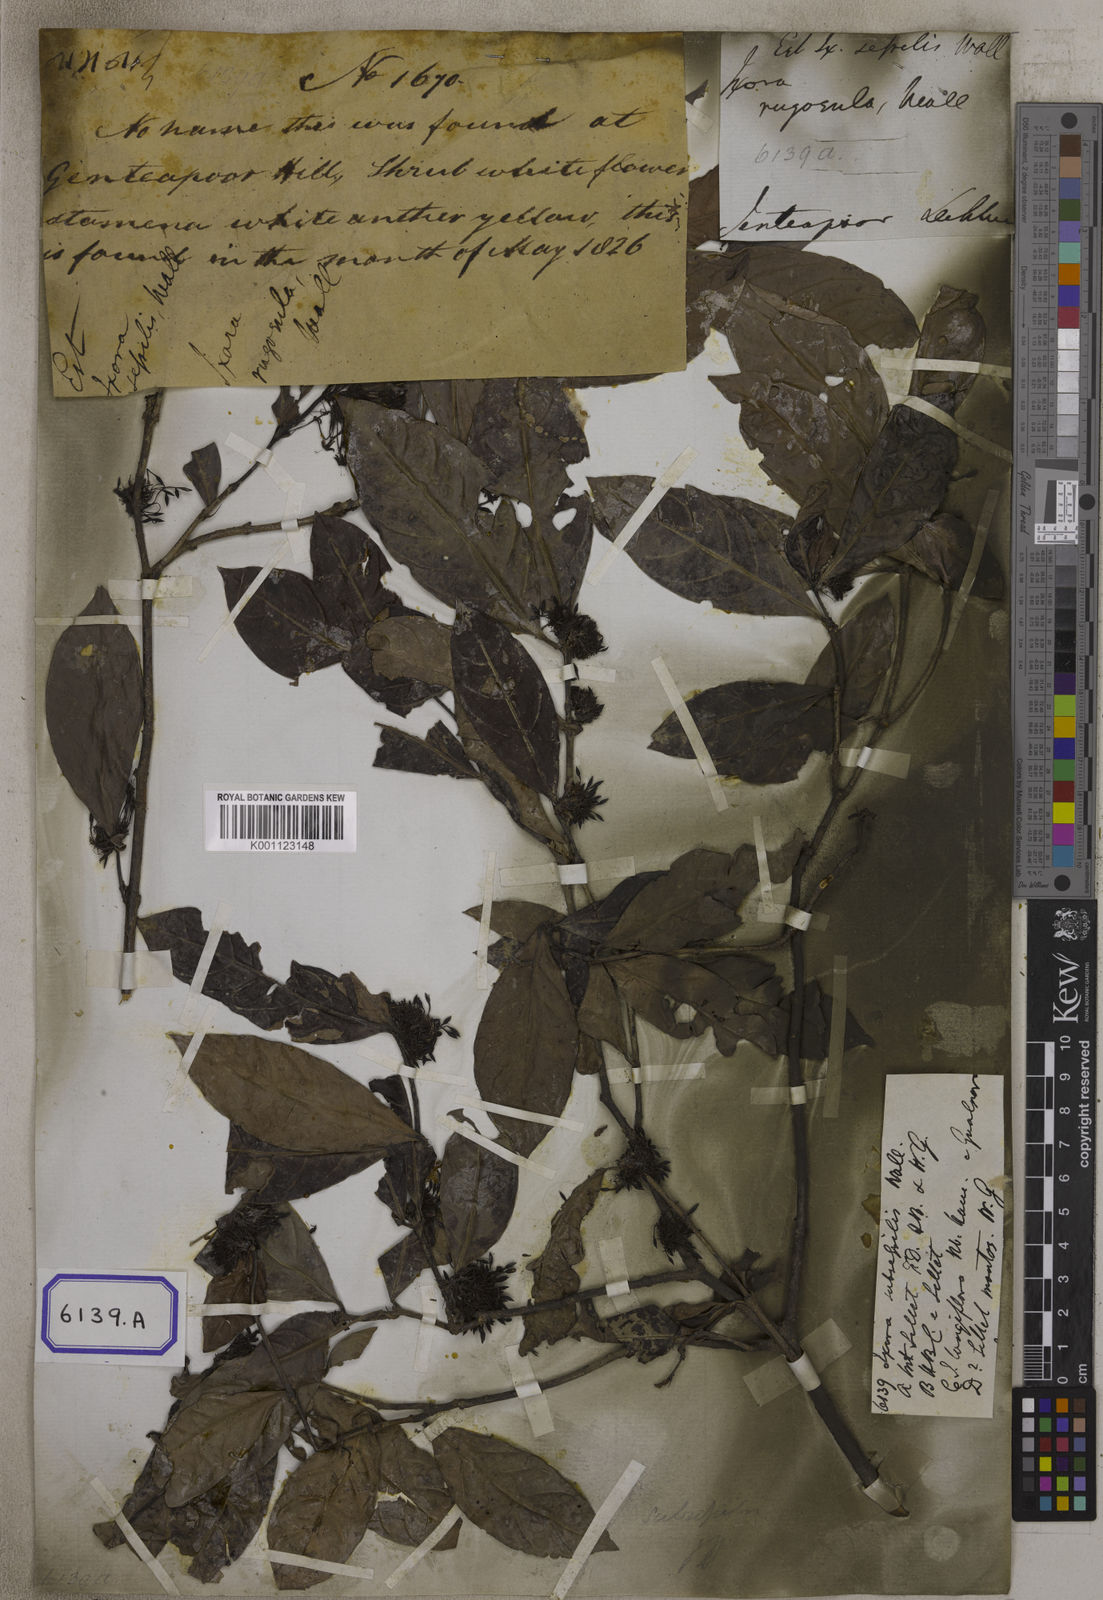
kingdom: Plantae
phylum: Tracheophyta
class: Magnoliopsida
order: Gentianales
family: Rubiaceae
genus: Ixora
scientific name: Ixora
